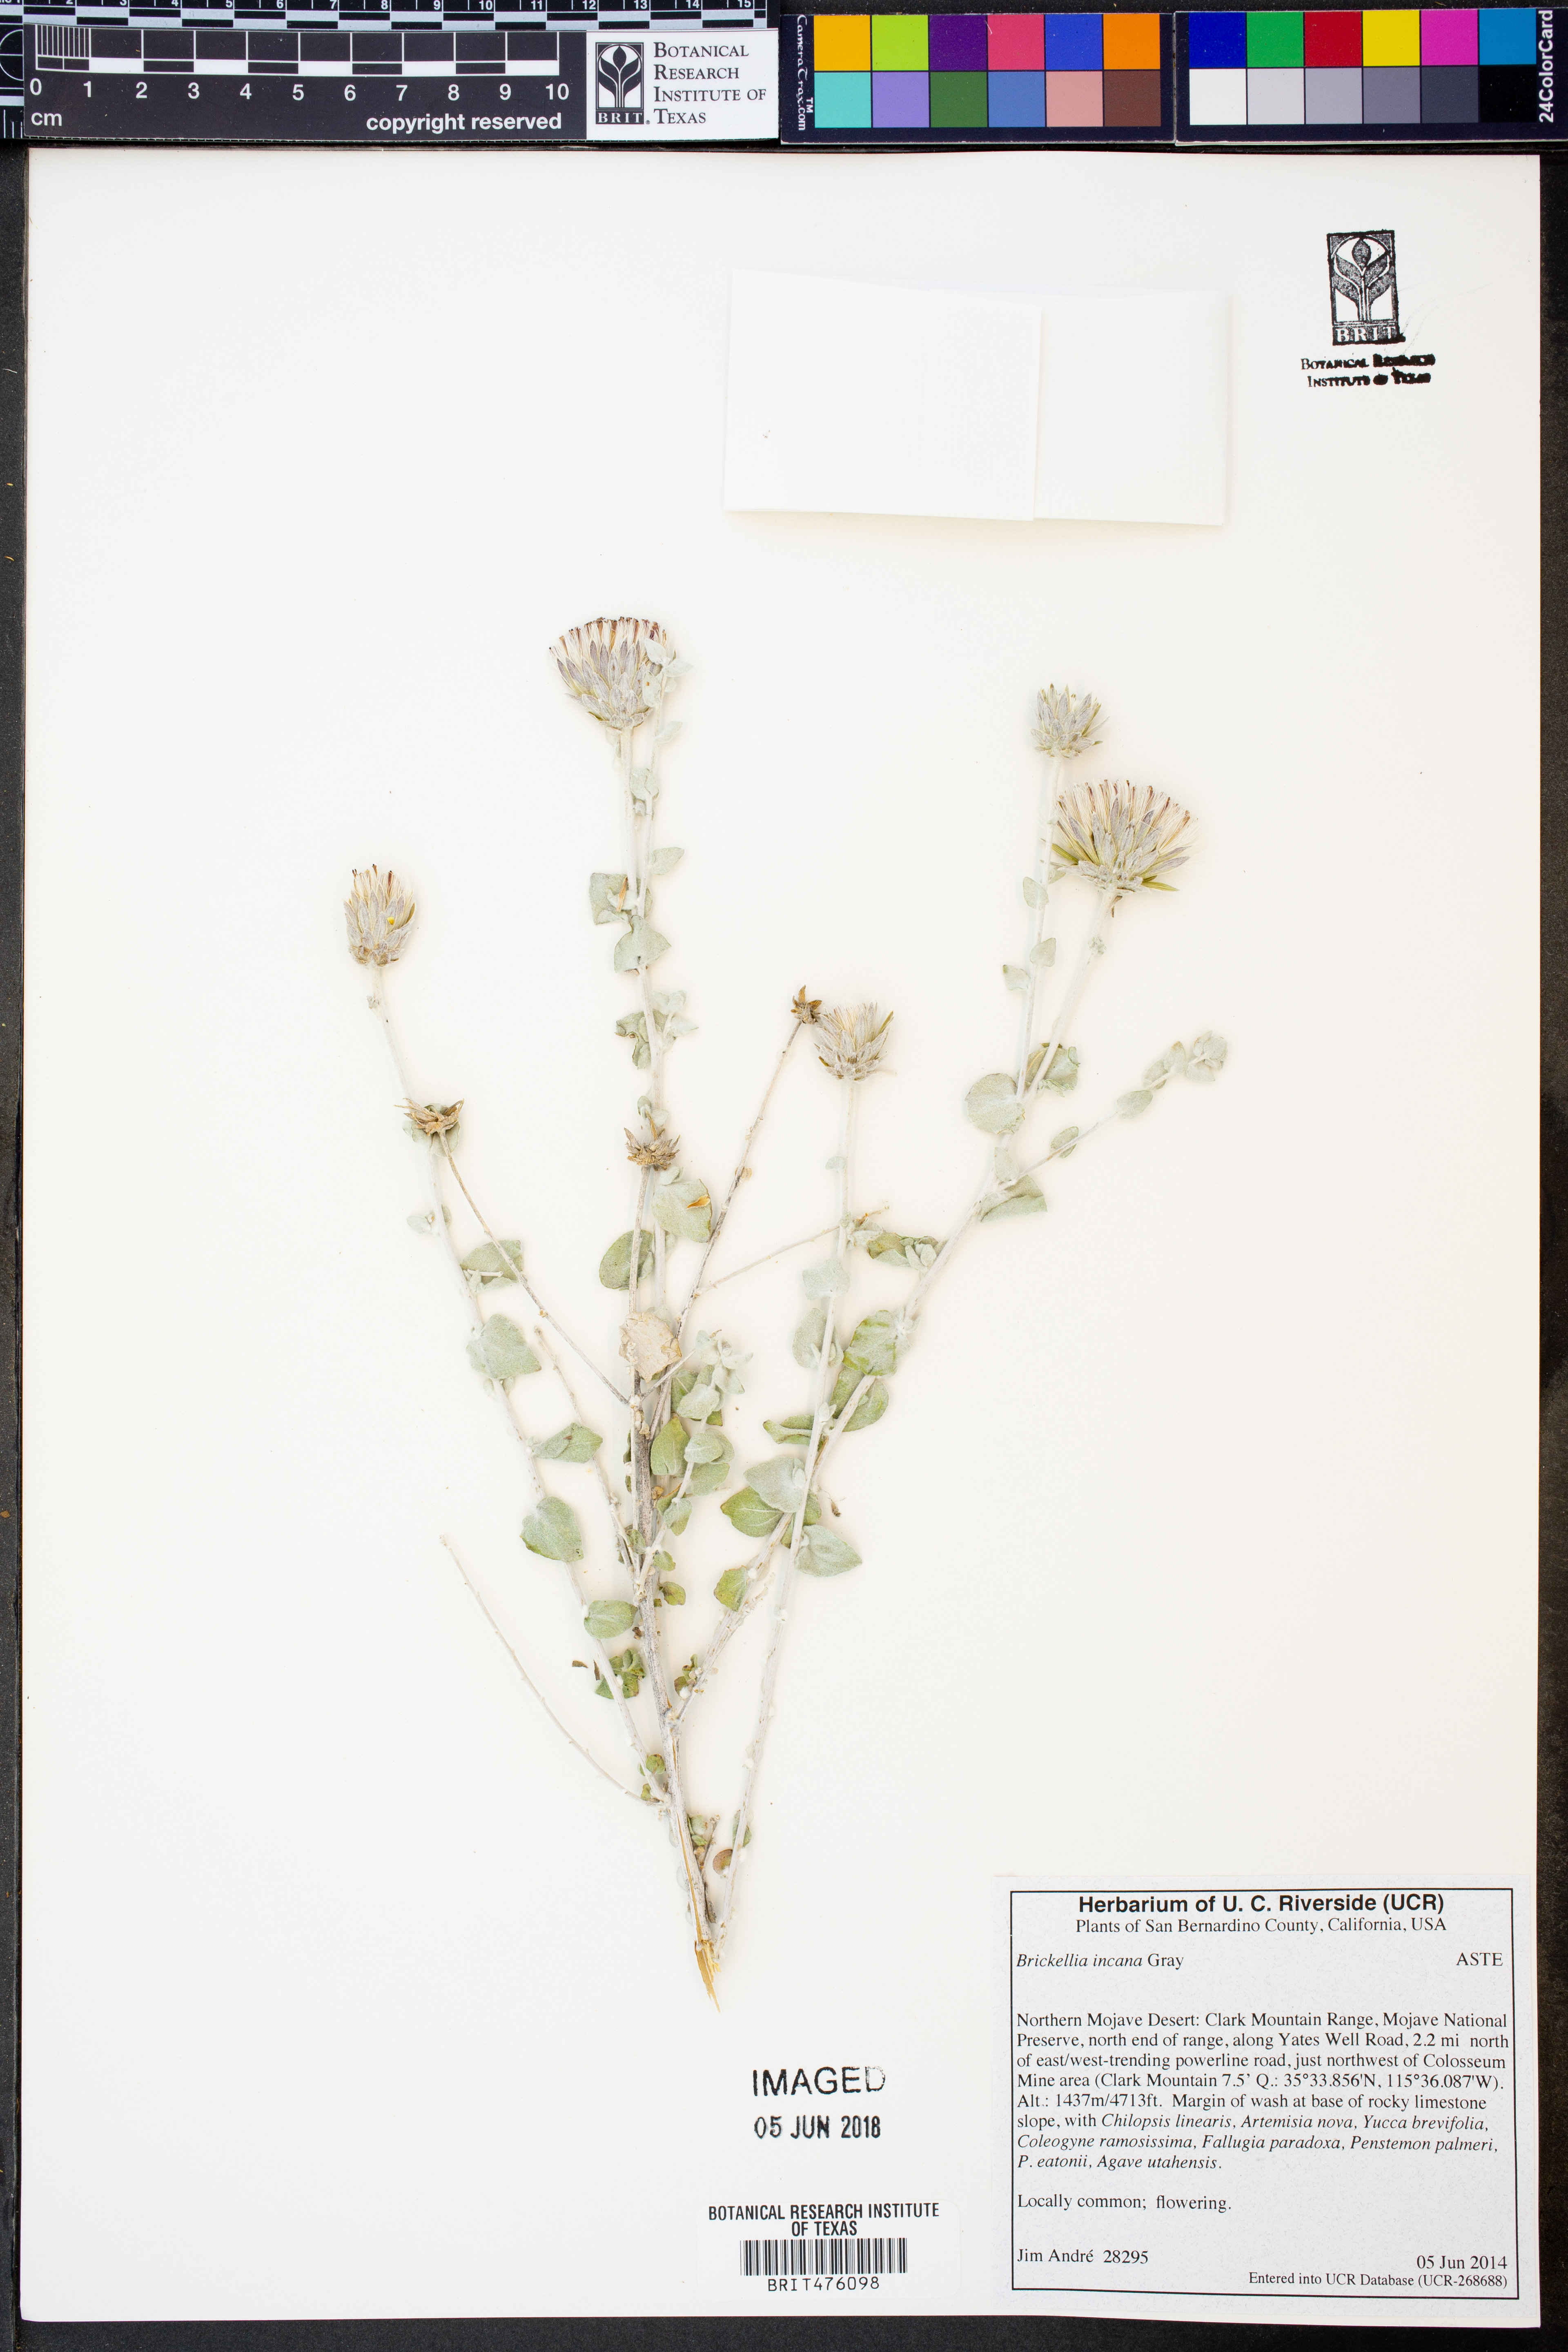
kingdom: Plantae
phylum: Tracheophyta
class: Magnoliopsida
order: Asterales
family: Asteraceae
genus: Brickellia
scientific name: Brickellia incana
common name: Woolly brickelbush
